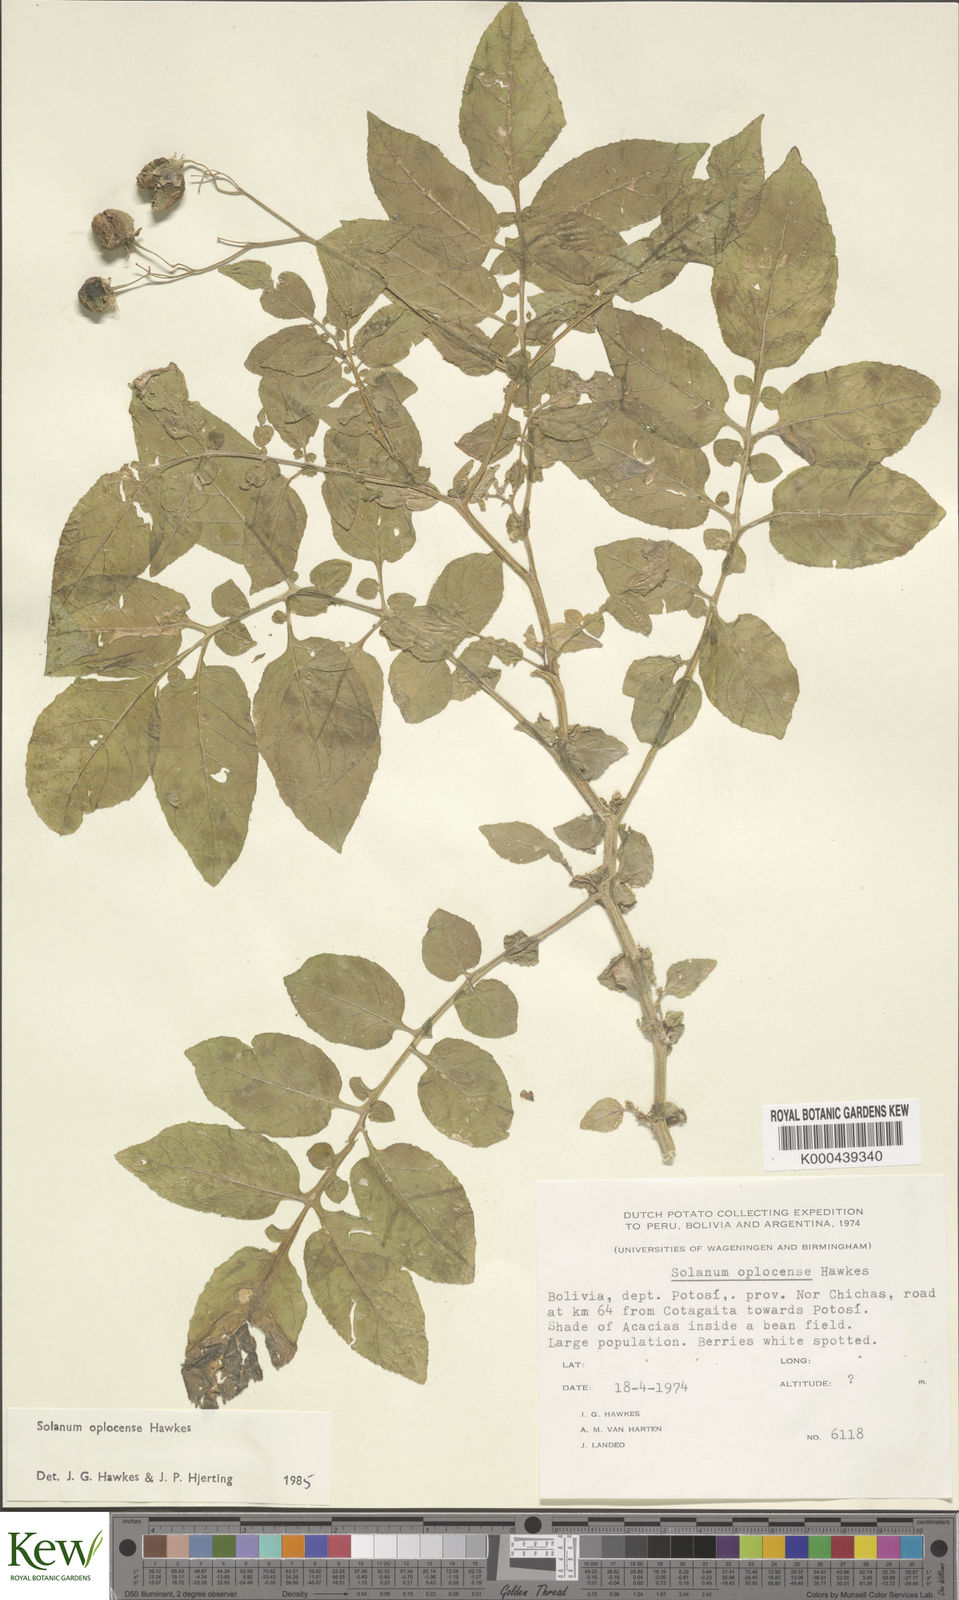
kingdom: Plantae
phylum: Tracheophyta
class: Magnoliopsida
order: Solanales
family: Solanaceae
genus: Solanum
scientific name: Solanum brevicaule
